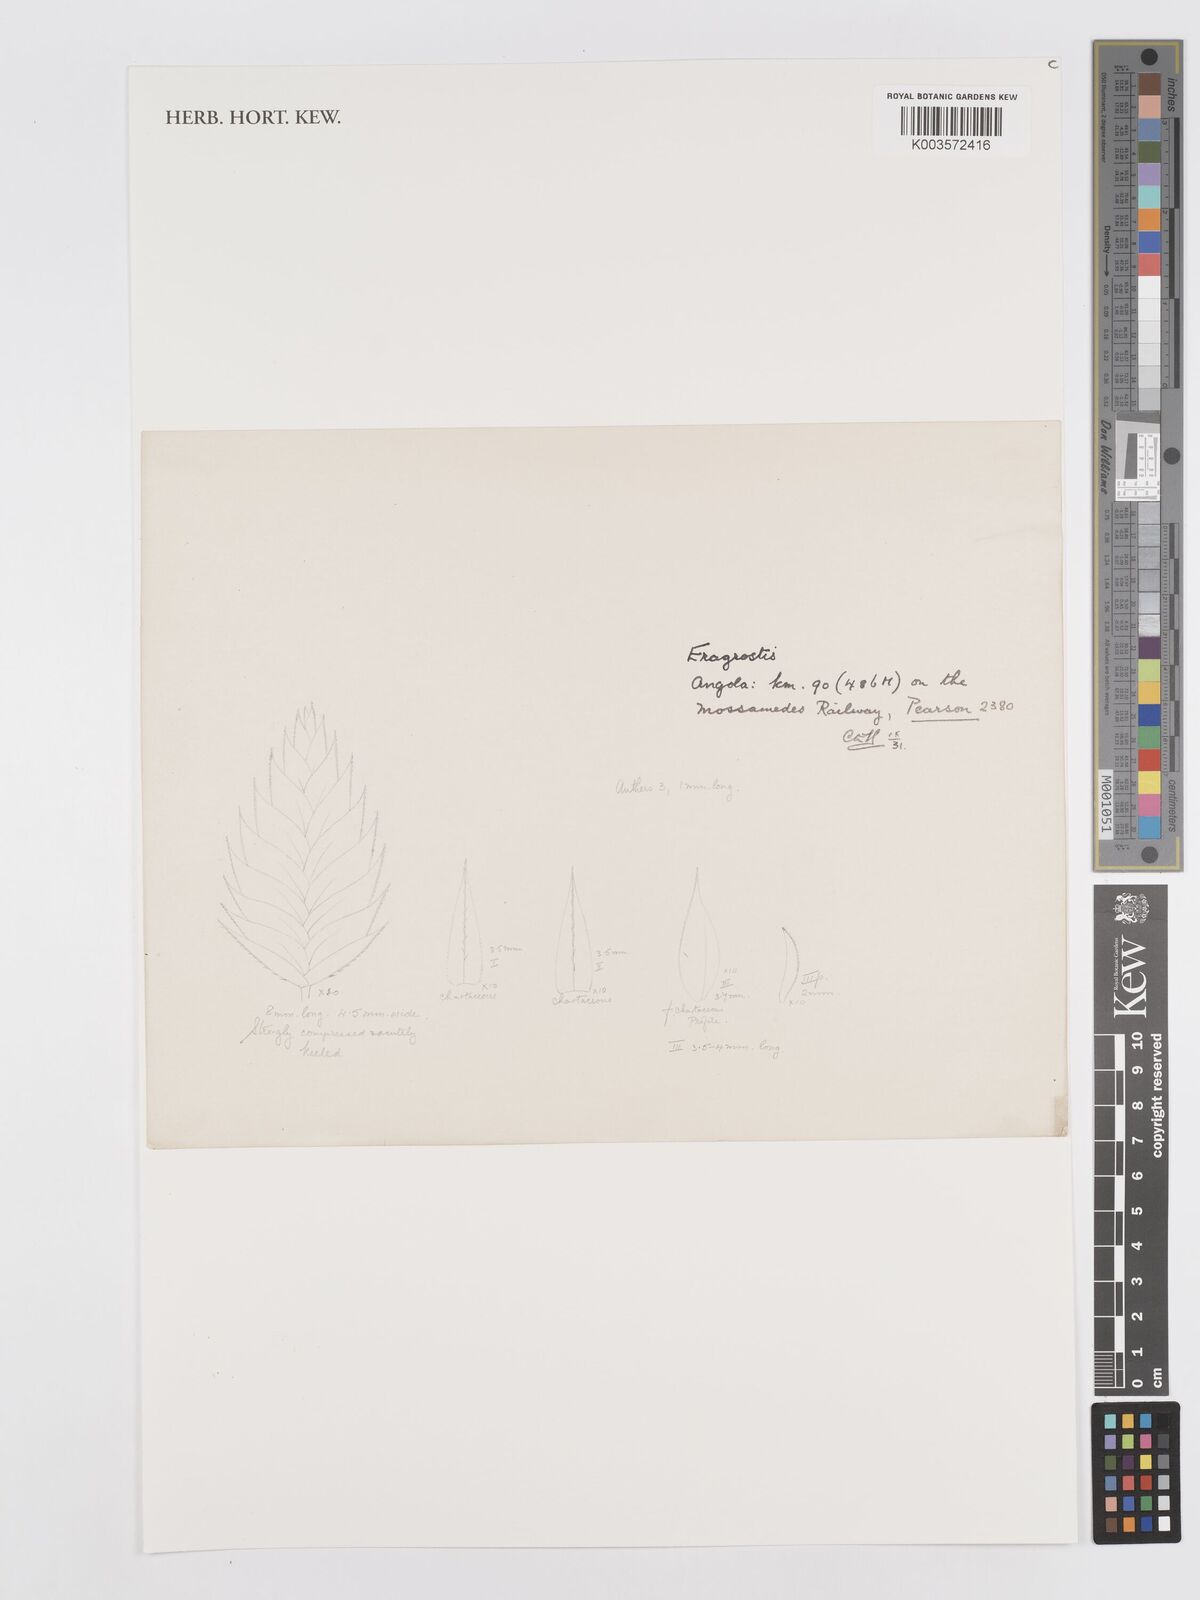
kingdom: Plantae
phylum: Tracheophyta
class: Liliopsida
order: Poales
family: Poaceae
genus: Eragrostis
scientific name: Eragrostis
